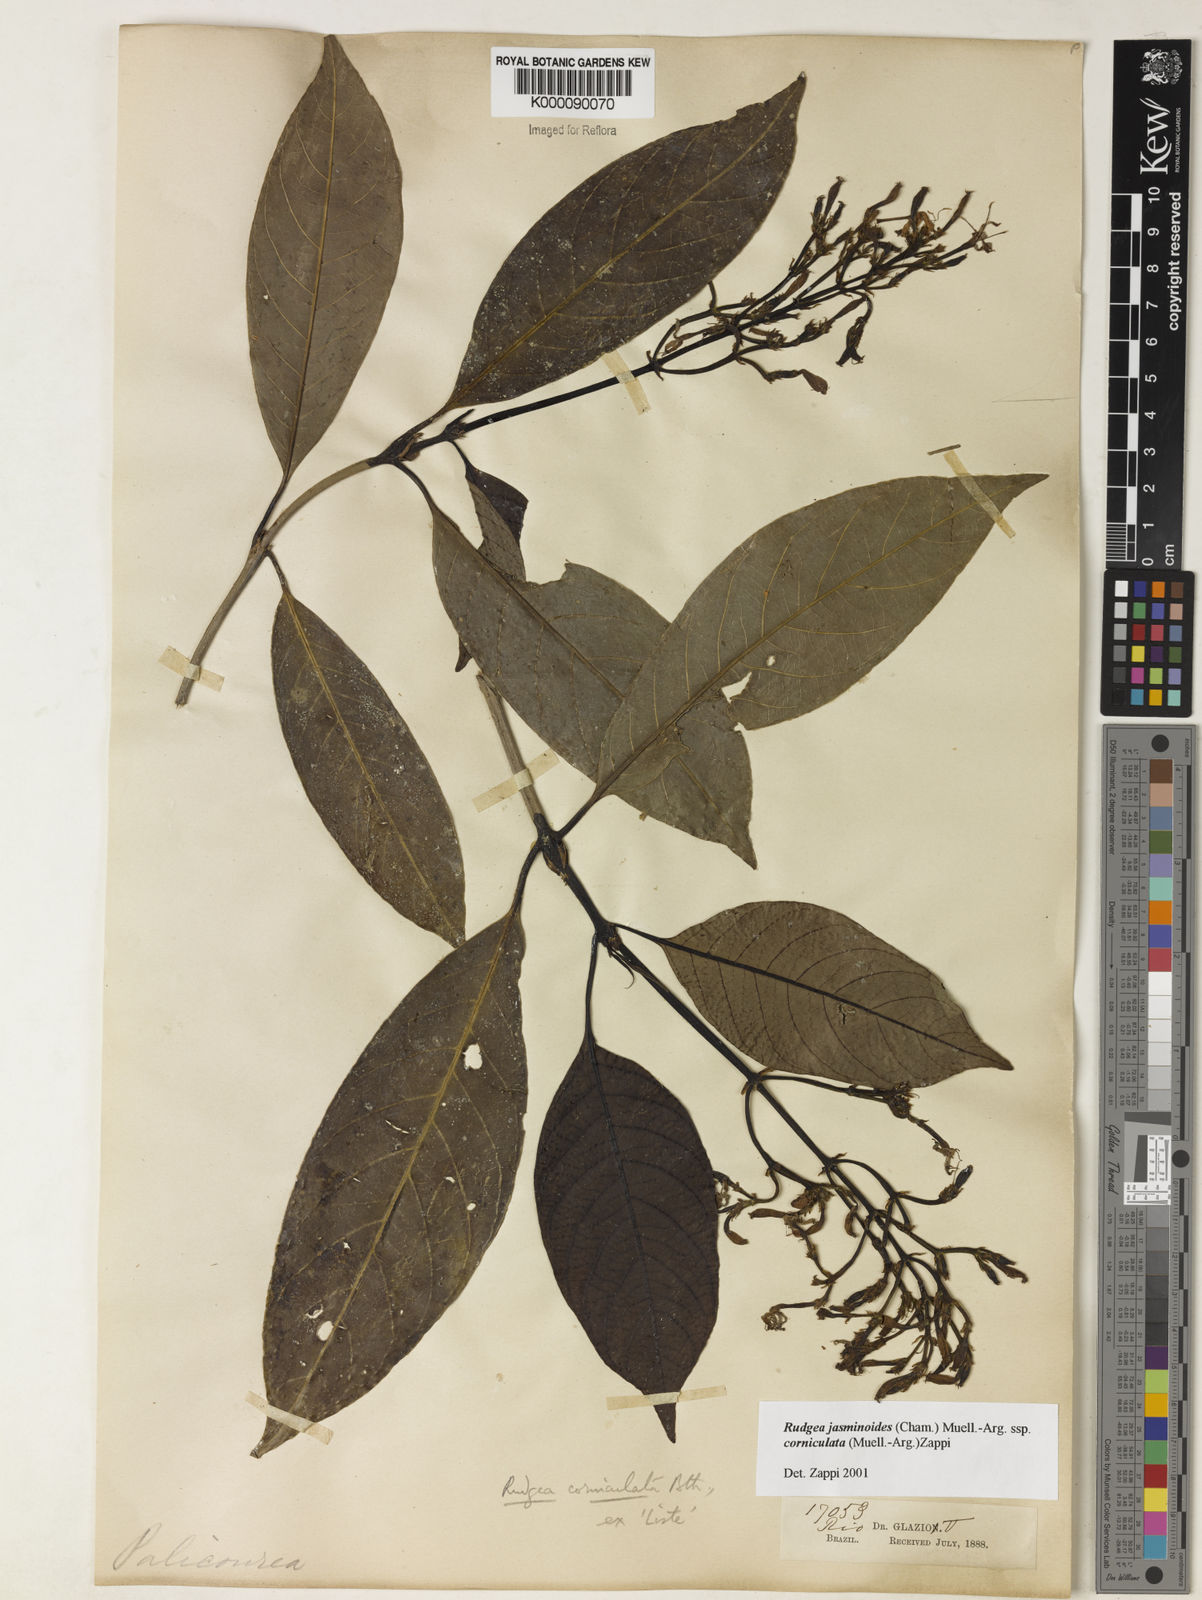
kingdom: Plantae
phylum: Tracheophyta
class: Magnoliopsida
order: Gentianales
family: Rubiaceae
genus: Rudgea
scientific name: Rudgea jasminoides
